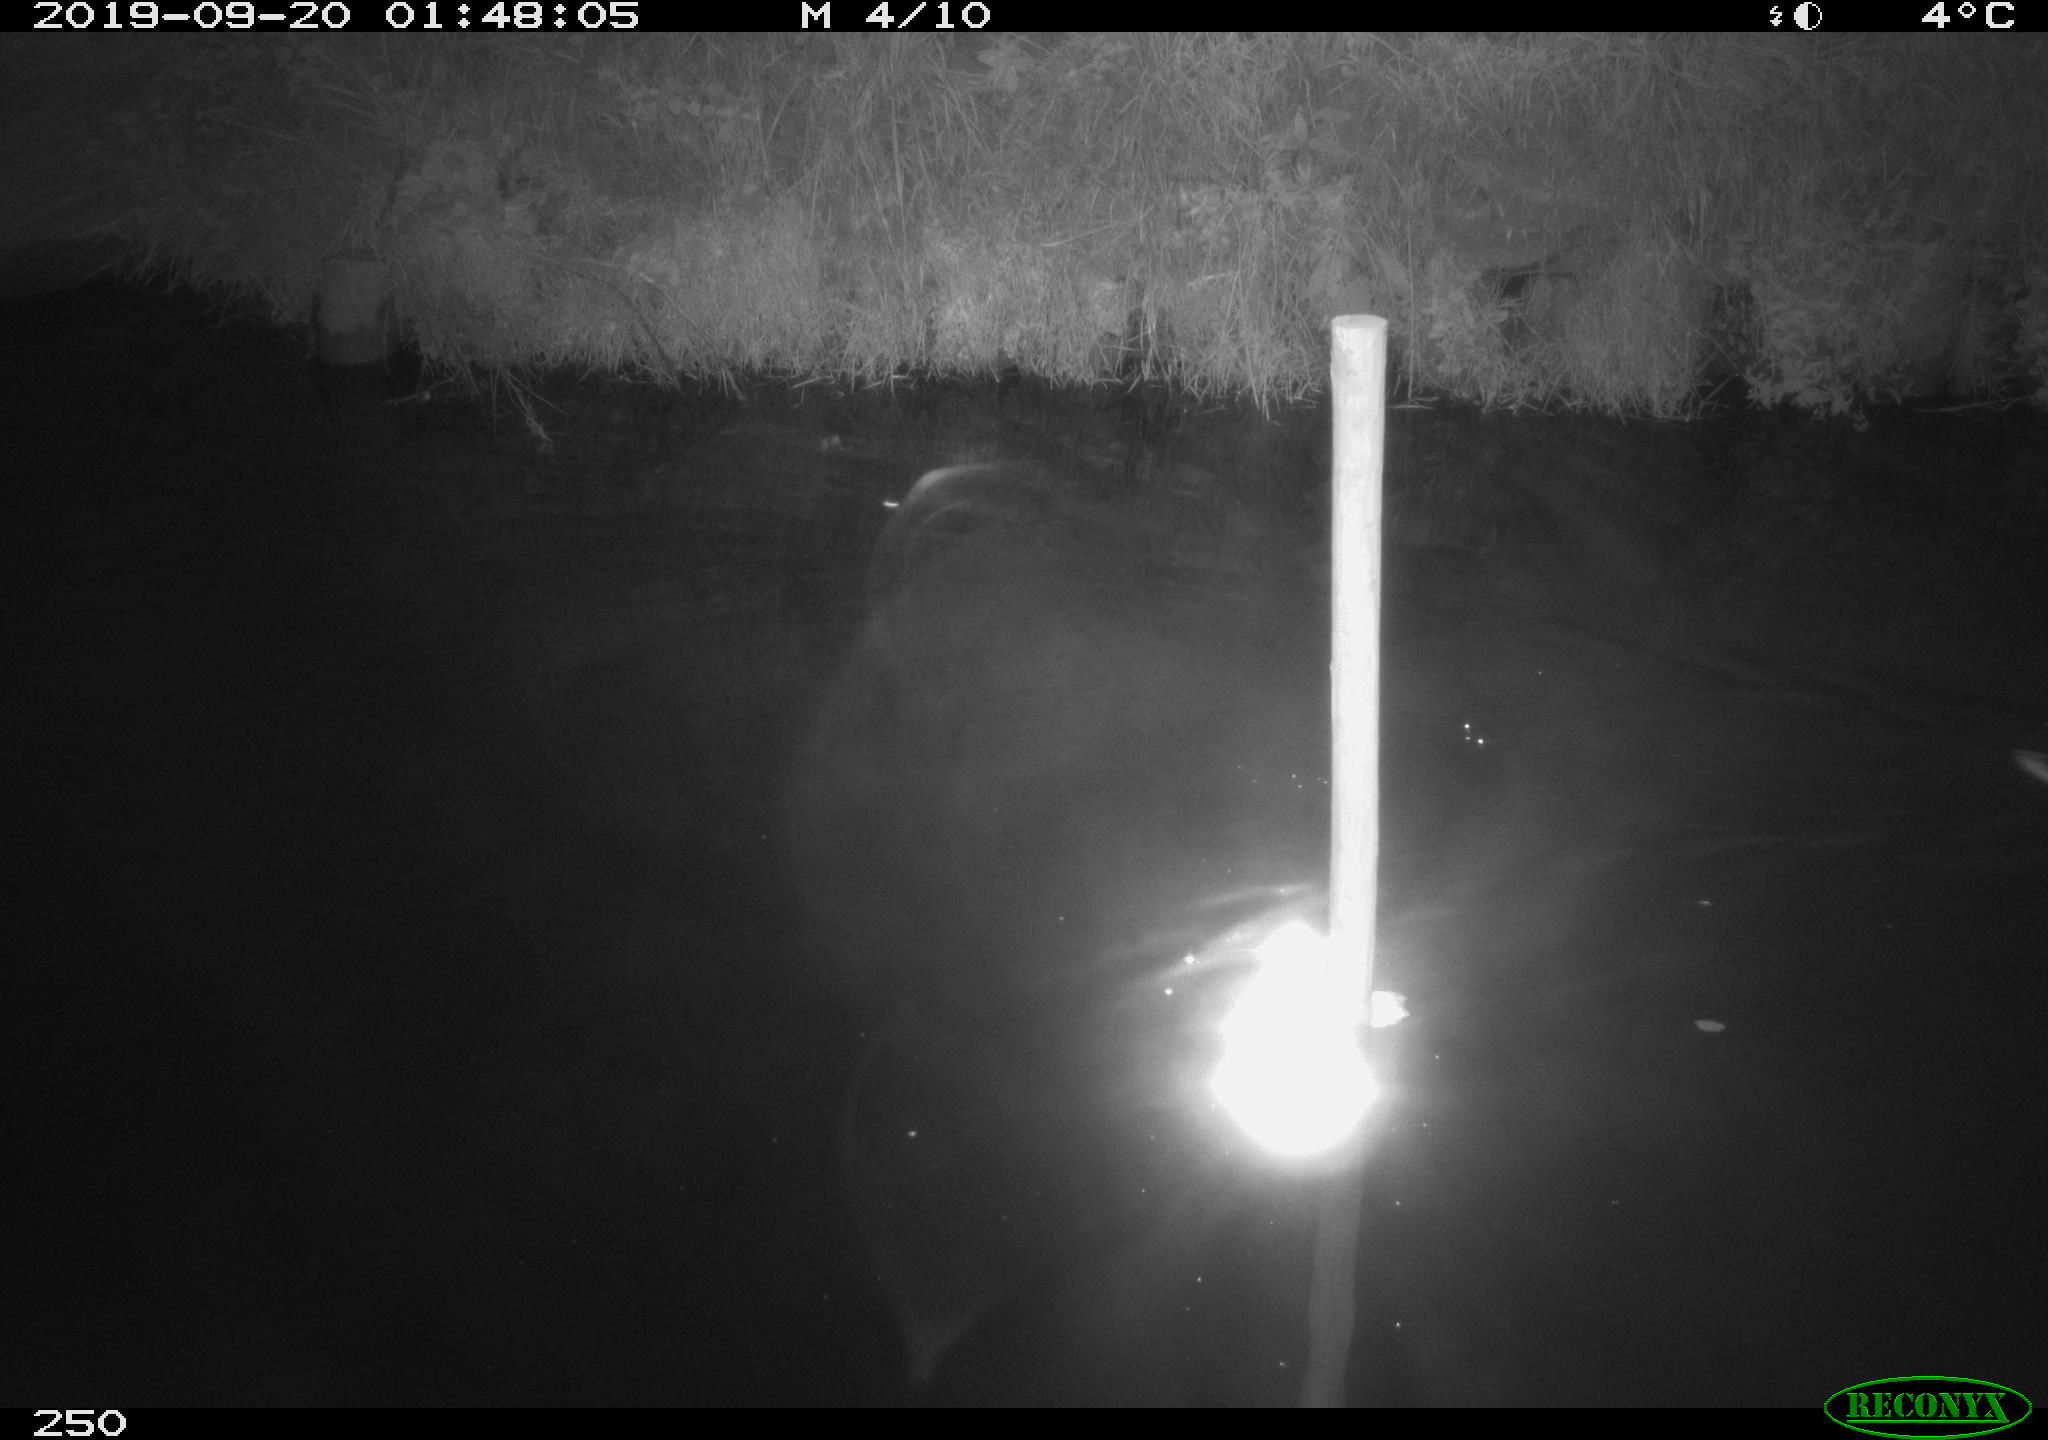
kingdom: Animalia
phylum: Chordata
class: Aves
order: Anseriformes
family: Anatidae
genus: Anas
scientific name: Anas platyrhynchos
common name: Mallard
